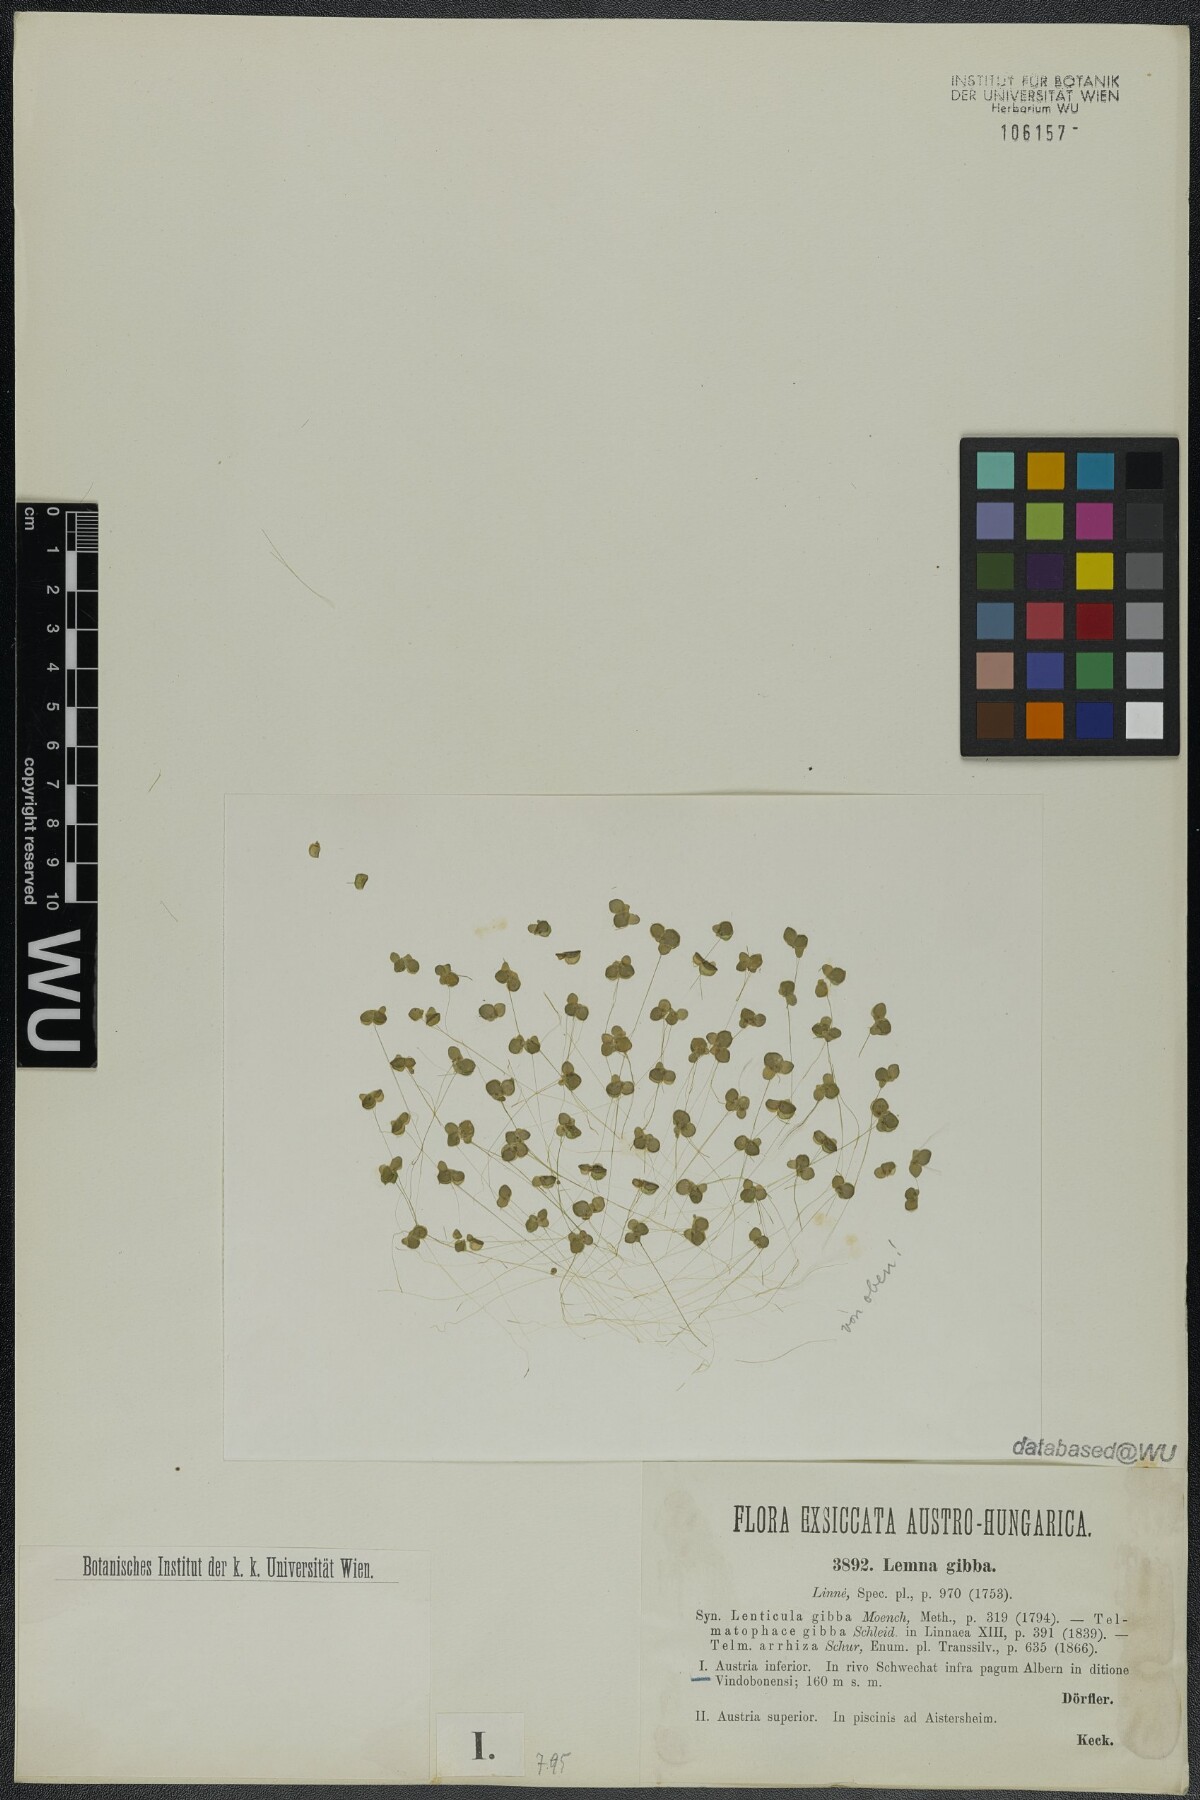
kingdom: Plantae
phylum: Tracheophyta
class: Liliopsida
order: Alismatales
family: Araceae
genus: Lemna
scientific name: Lemna gibba
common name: Fat duckweed
